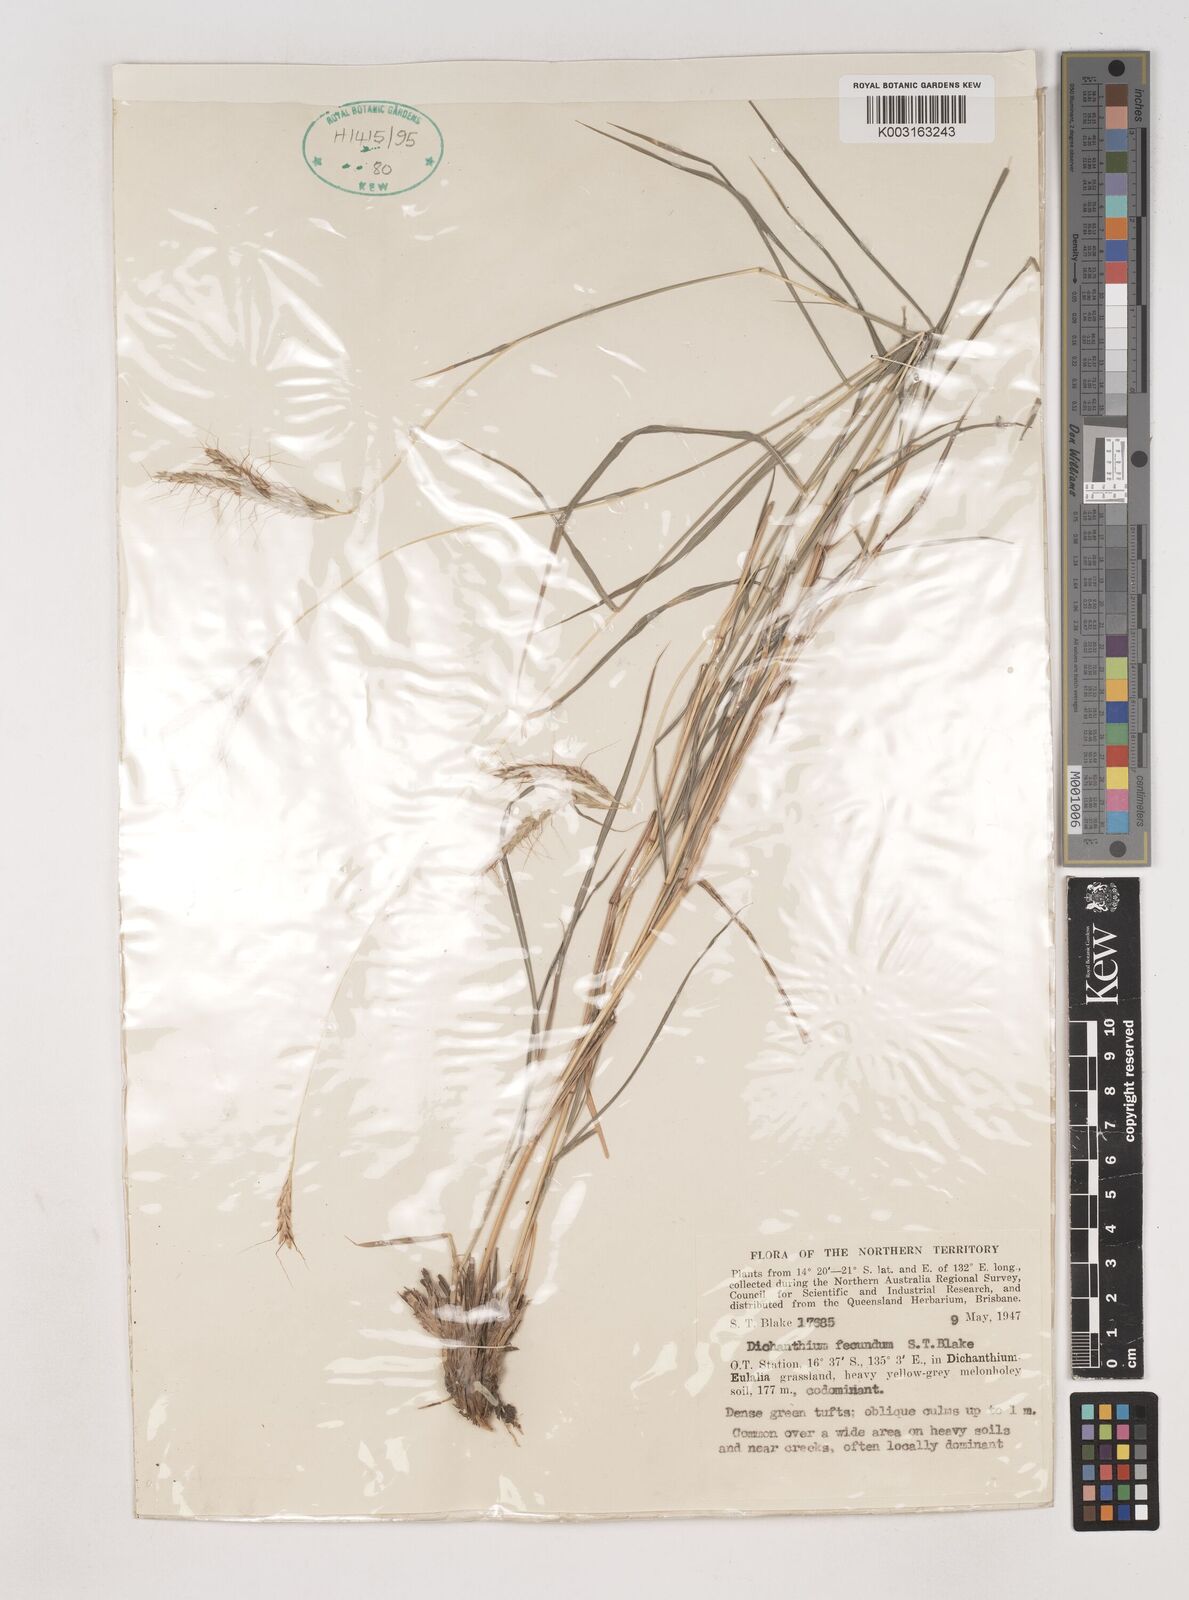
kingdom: Plantae
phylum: Tracheophyta
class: Liliopsida
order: Poales
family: Poaceae
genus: Dichanthium
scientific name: Dichanthium fecundum
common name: Bundle-bundle
